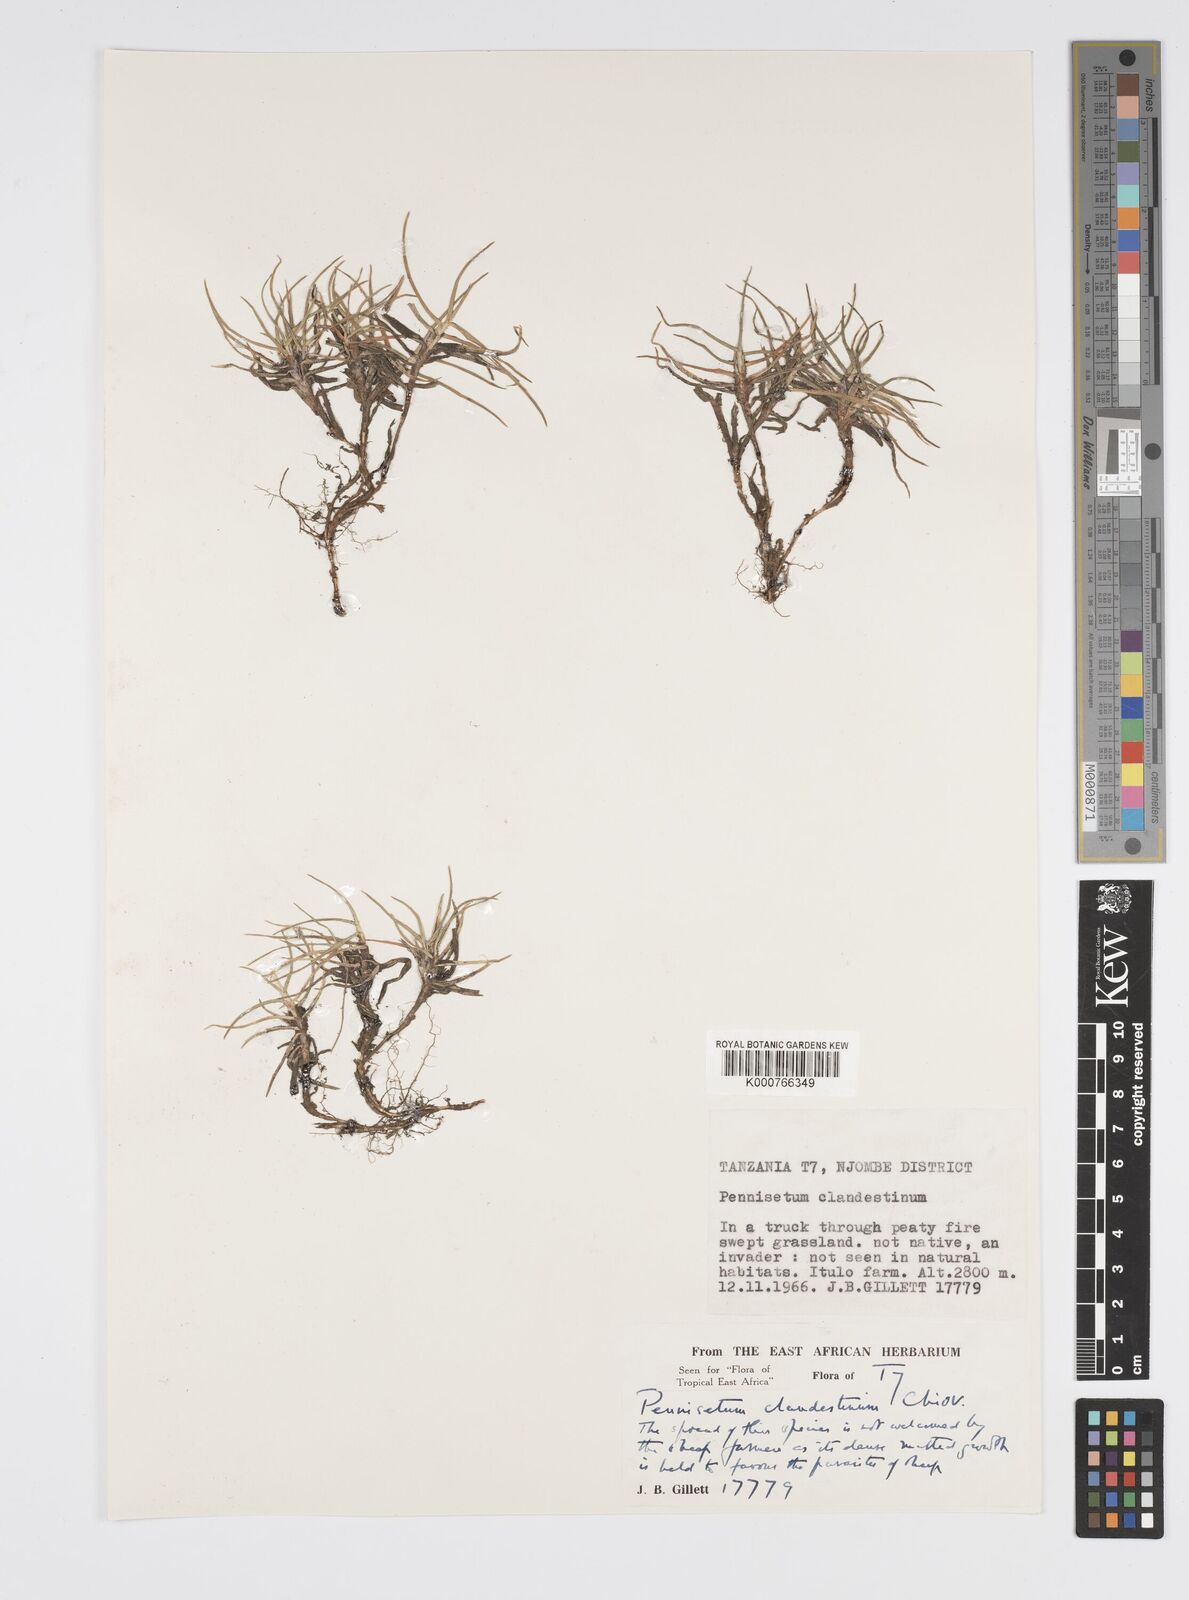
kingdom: Plantae
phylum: Tracheophyta
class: Liliopsida
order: Poales
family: Poaceae
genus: Cenchrus
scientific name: Cenchrus clandestinus
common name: Kikuyugrass
